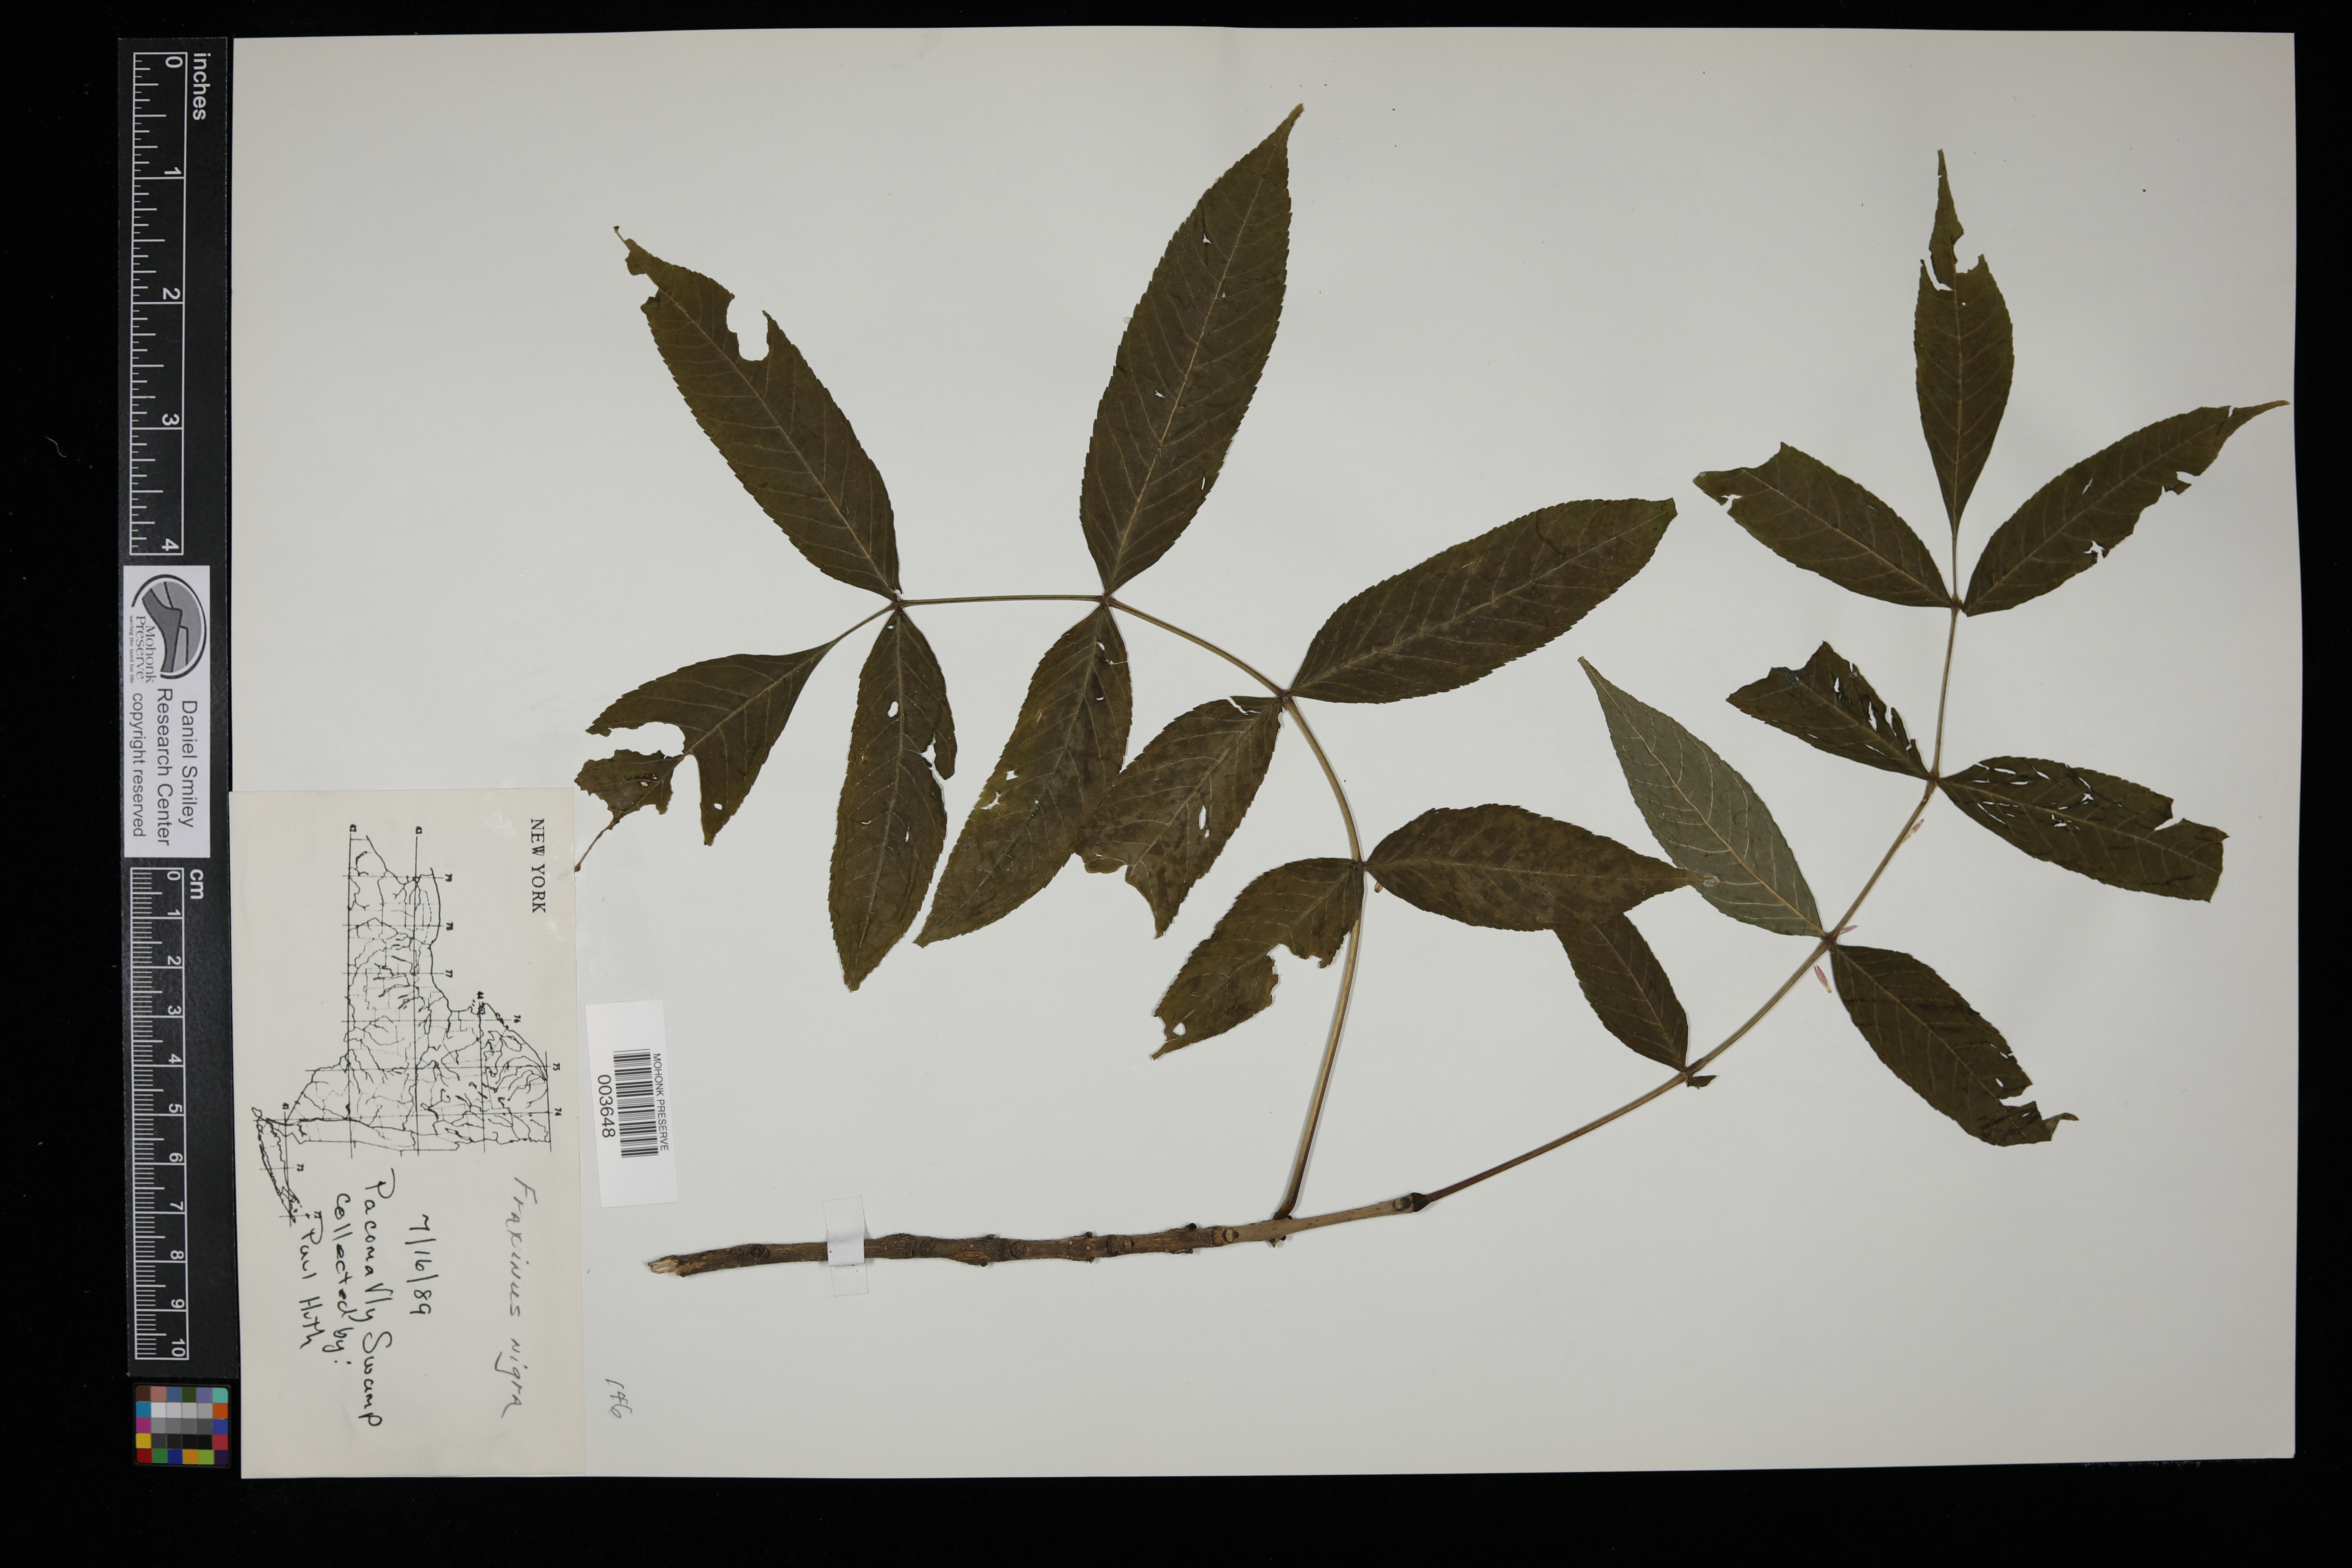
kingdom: Plantae
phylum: Tracheophyta
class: Magnoliopsida
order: Lamiales
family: Oleaceae
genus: Fraxinus
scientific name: Fraxinus nigra
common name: Black ash
